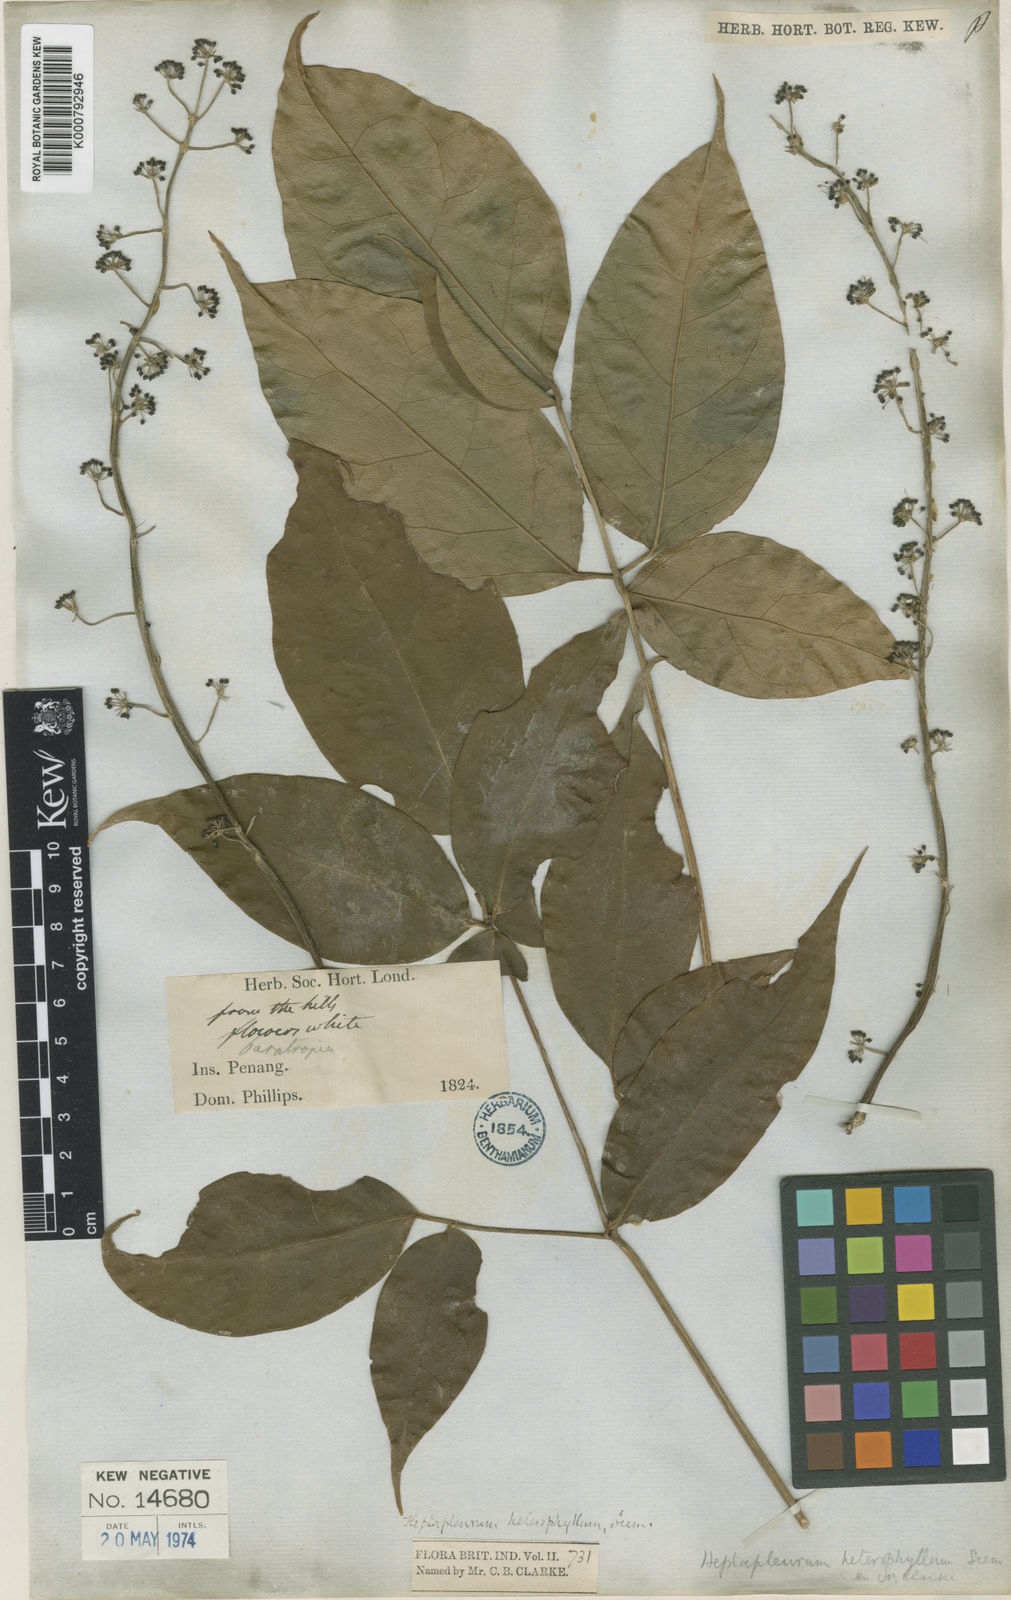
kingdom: Plantae
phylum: Tracheophyta
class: Magnoliopsida
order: Apiales
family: Araliaceae
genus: Heptapleurum
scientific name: Heptapleurum heterophyllum
